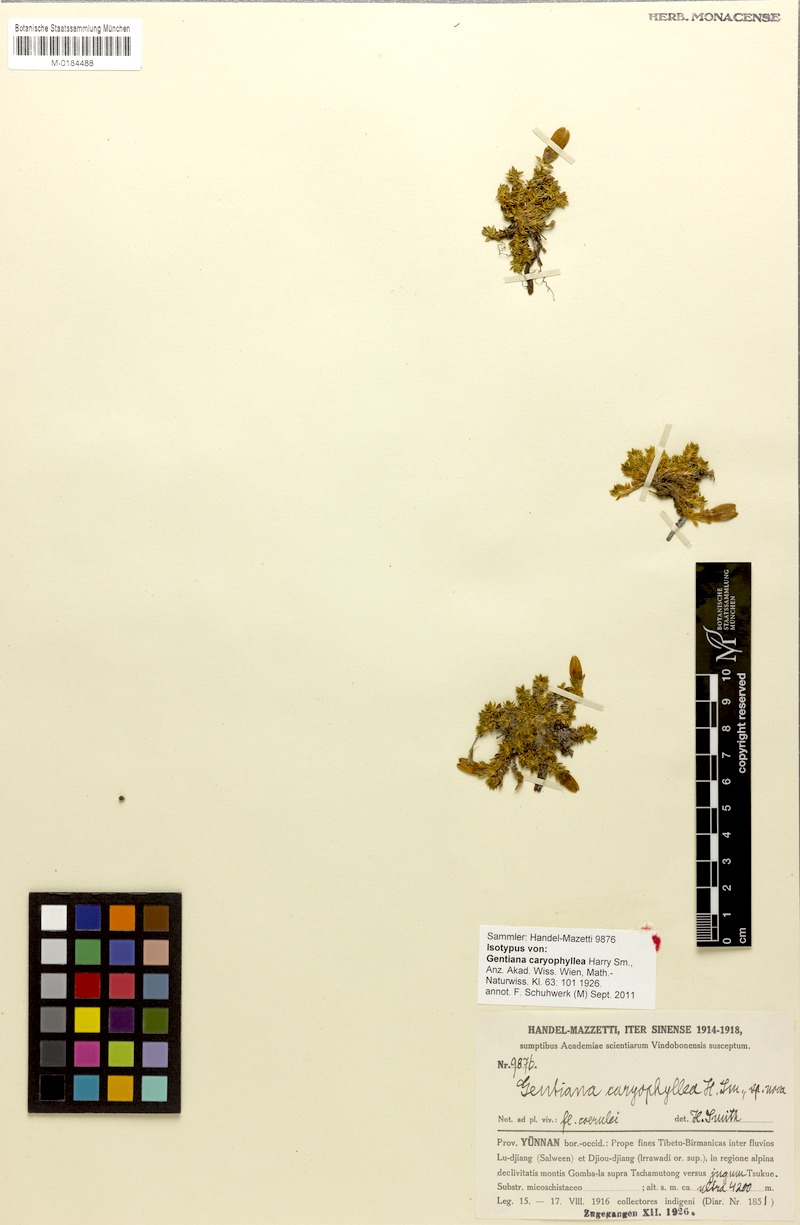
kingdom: Plantae
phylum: Tracheophyta
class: Magnoliopsida
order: Gentianales
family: Gentianaceae
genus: Kuepferia
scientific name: Kuepferia caryophyllea
